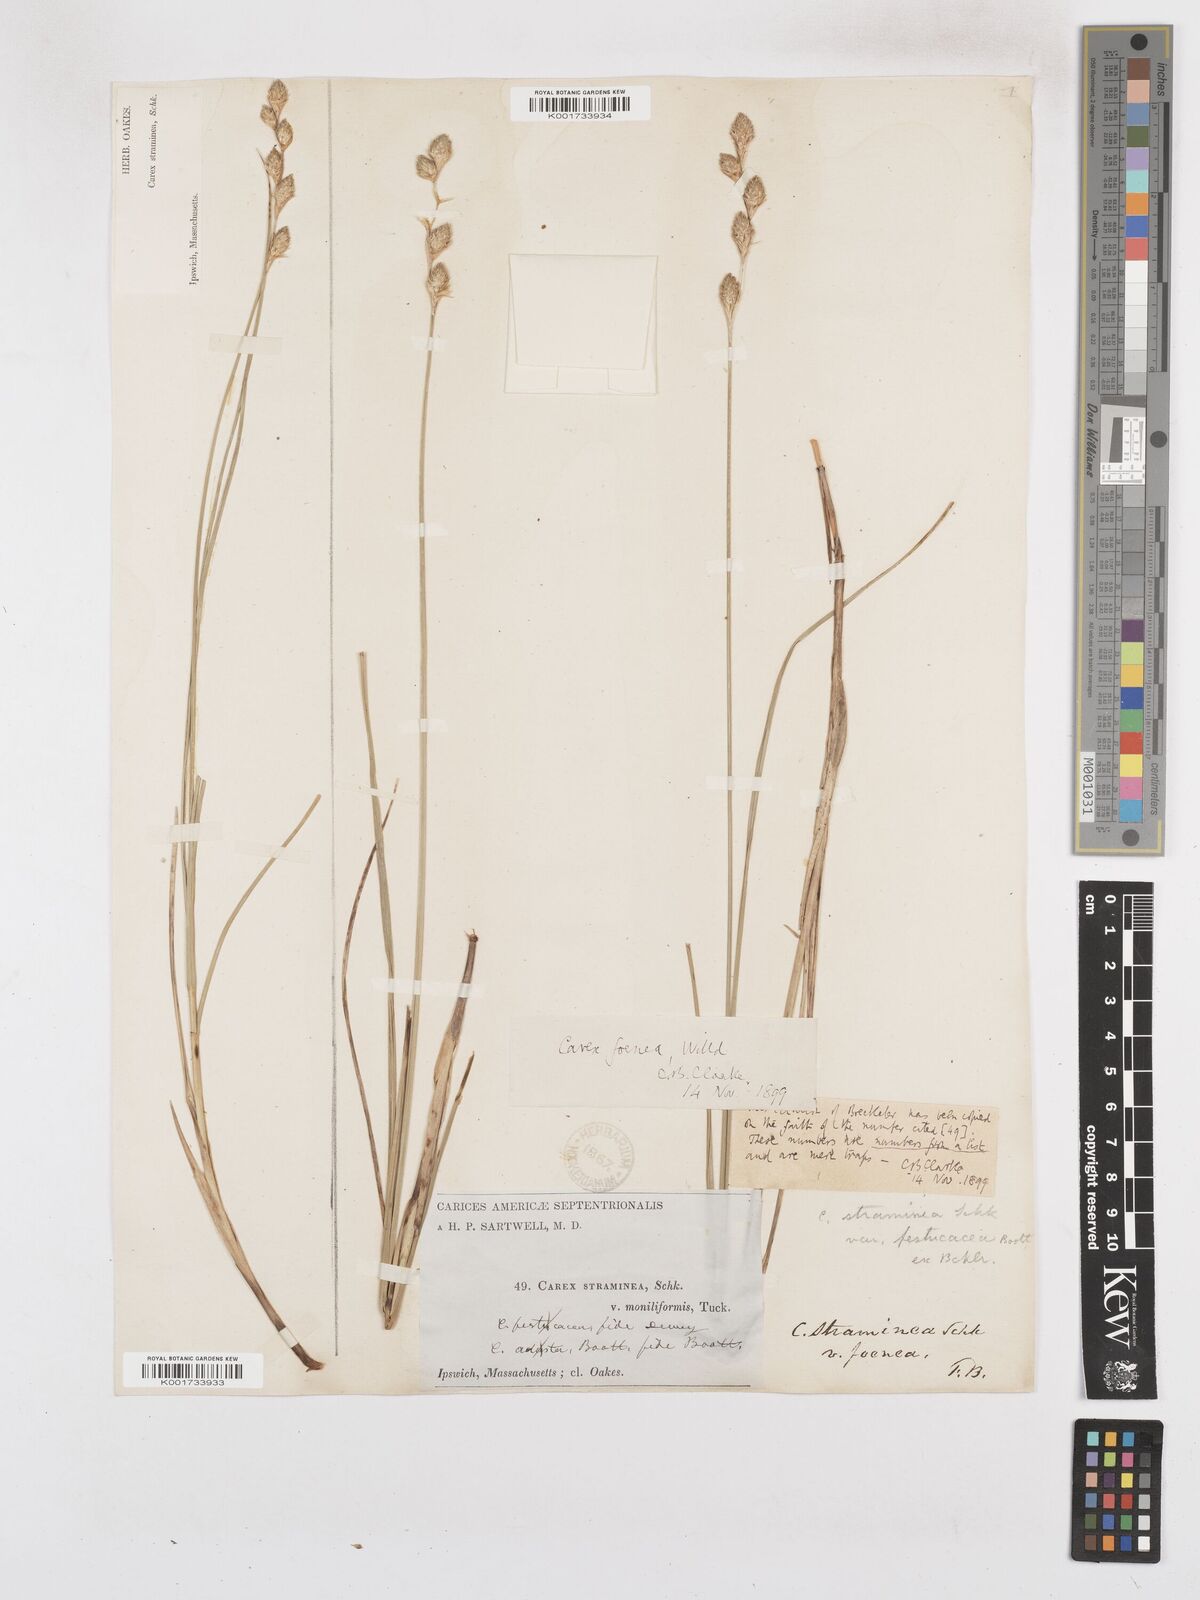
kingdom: Plantae
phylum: Tracheophyta
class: Liliopsida
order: Poales
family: Cyperaceae
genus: Carex
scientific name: Carex argyrantha
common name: Silvery-flowered sedge
